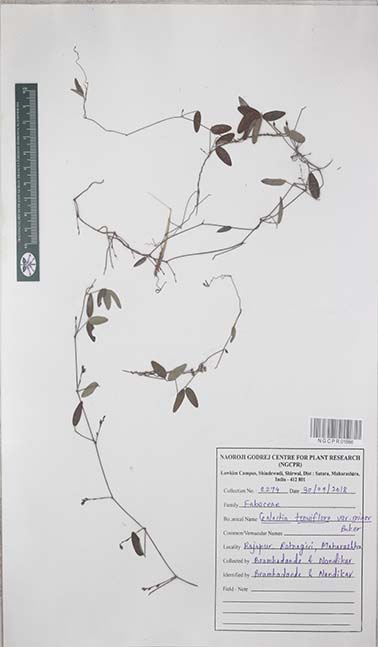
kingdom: Plantae
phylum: Tracheophyta
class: Magnoliopsida
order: Fabales
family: Fabaceae
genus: Galactia
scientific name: Galactia striata
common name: Florida hammock milkpea
